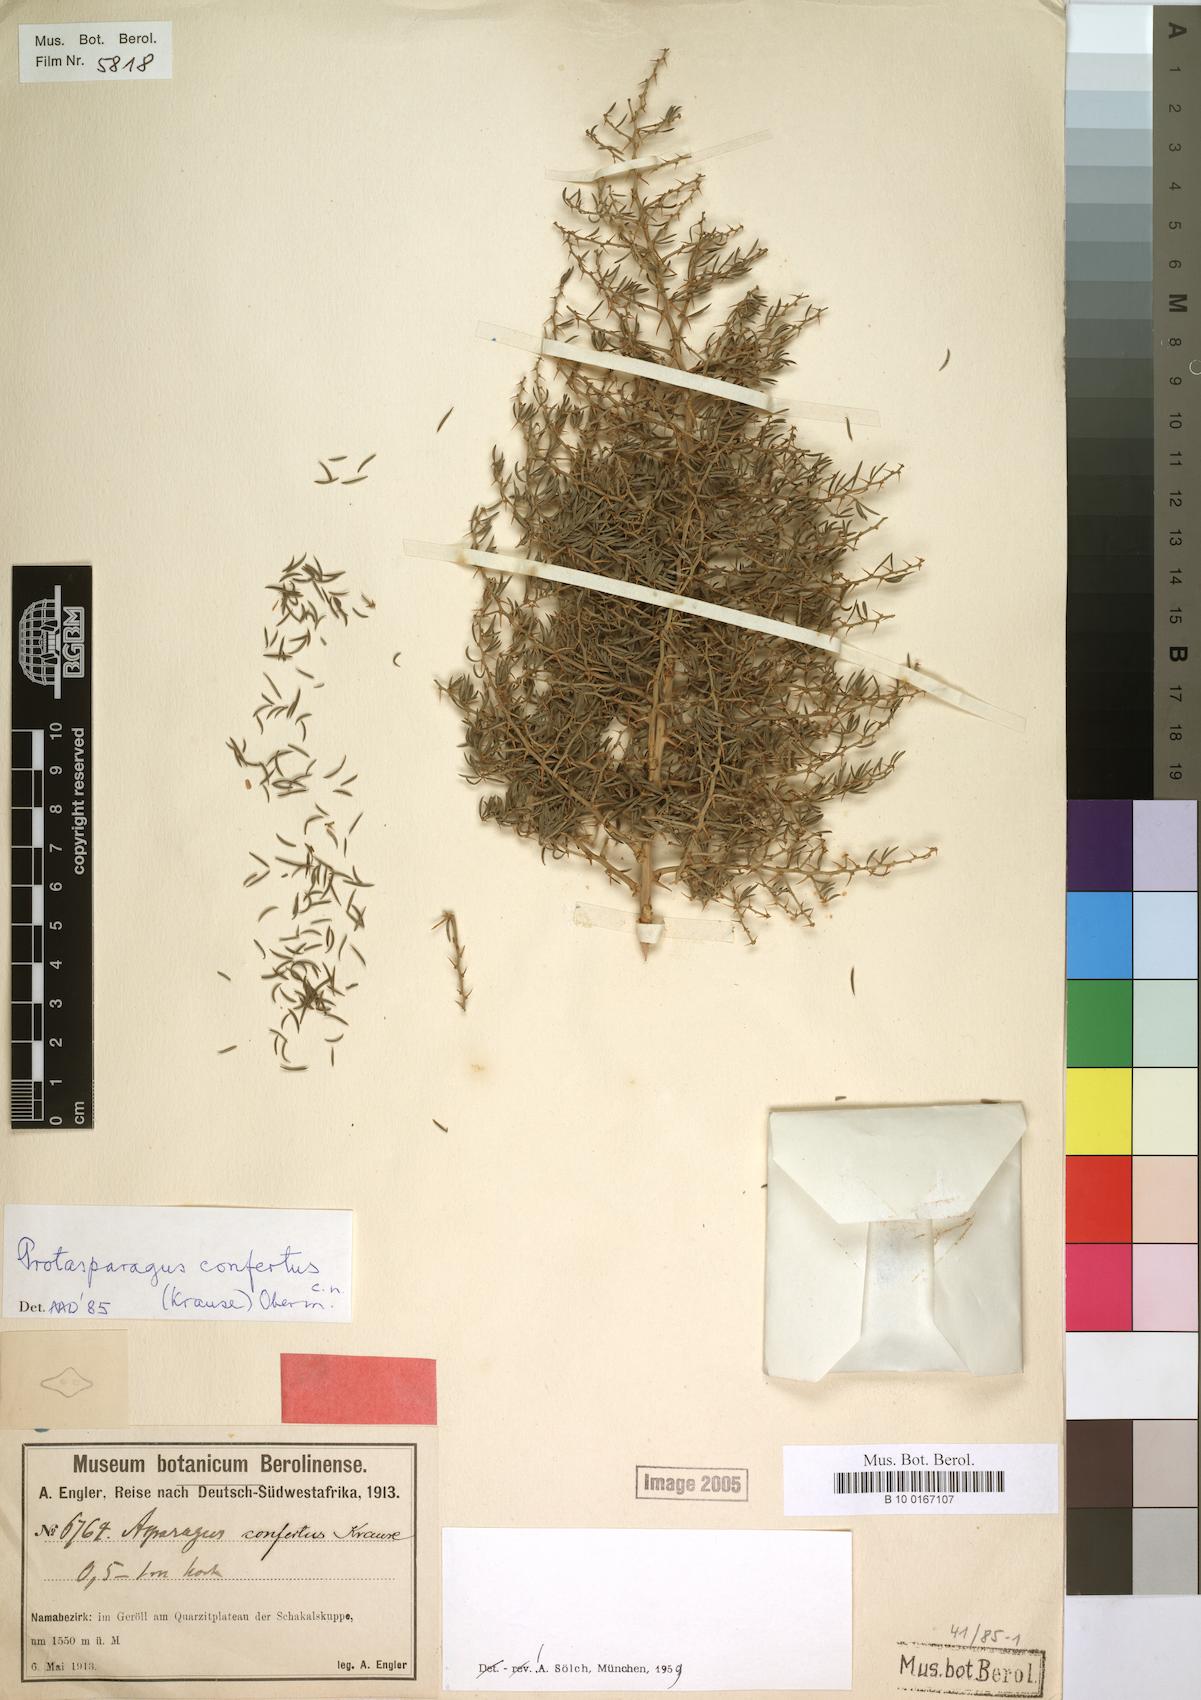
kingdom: Plantae
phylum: Tracheophyta
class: Liliopsida
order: Asparagales
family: Asparagaceae
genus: Asparagus
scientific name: Asparagus confertus
